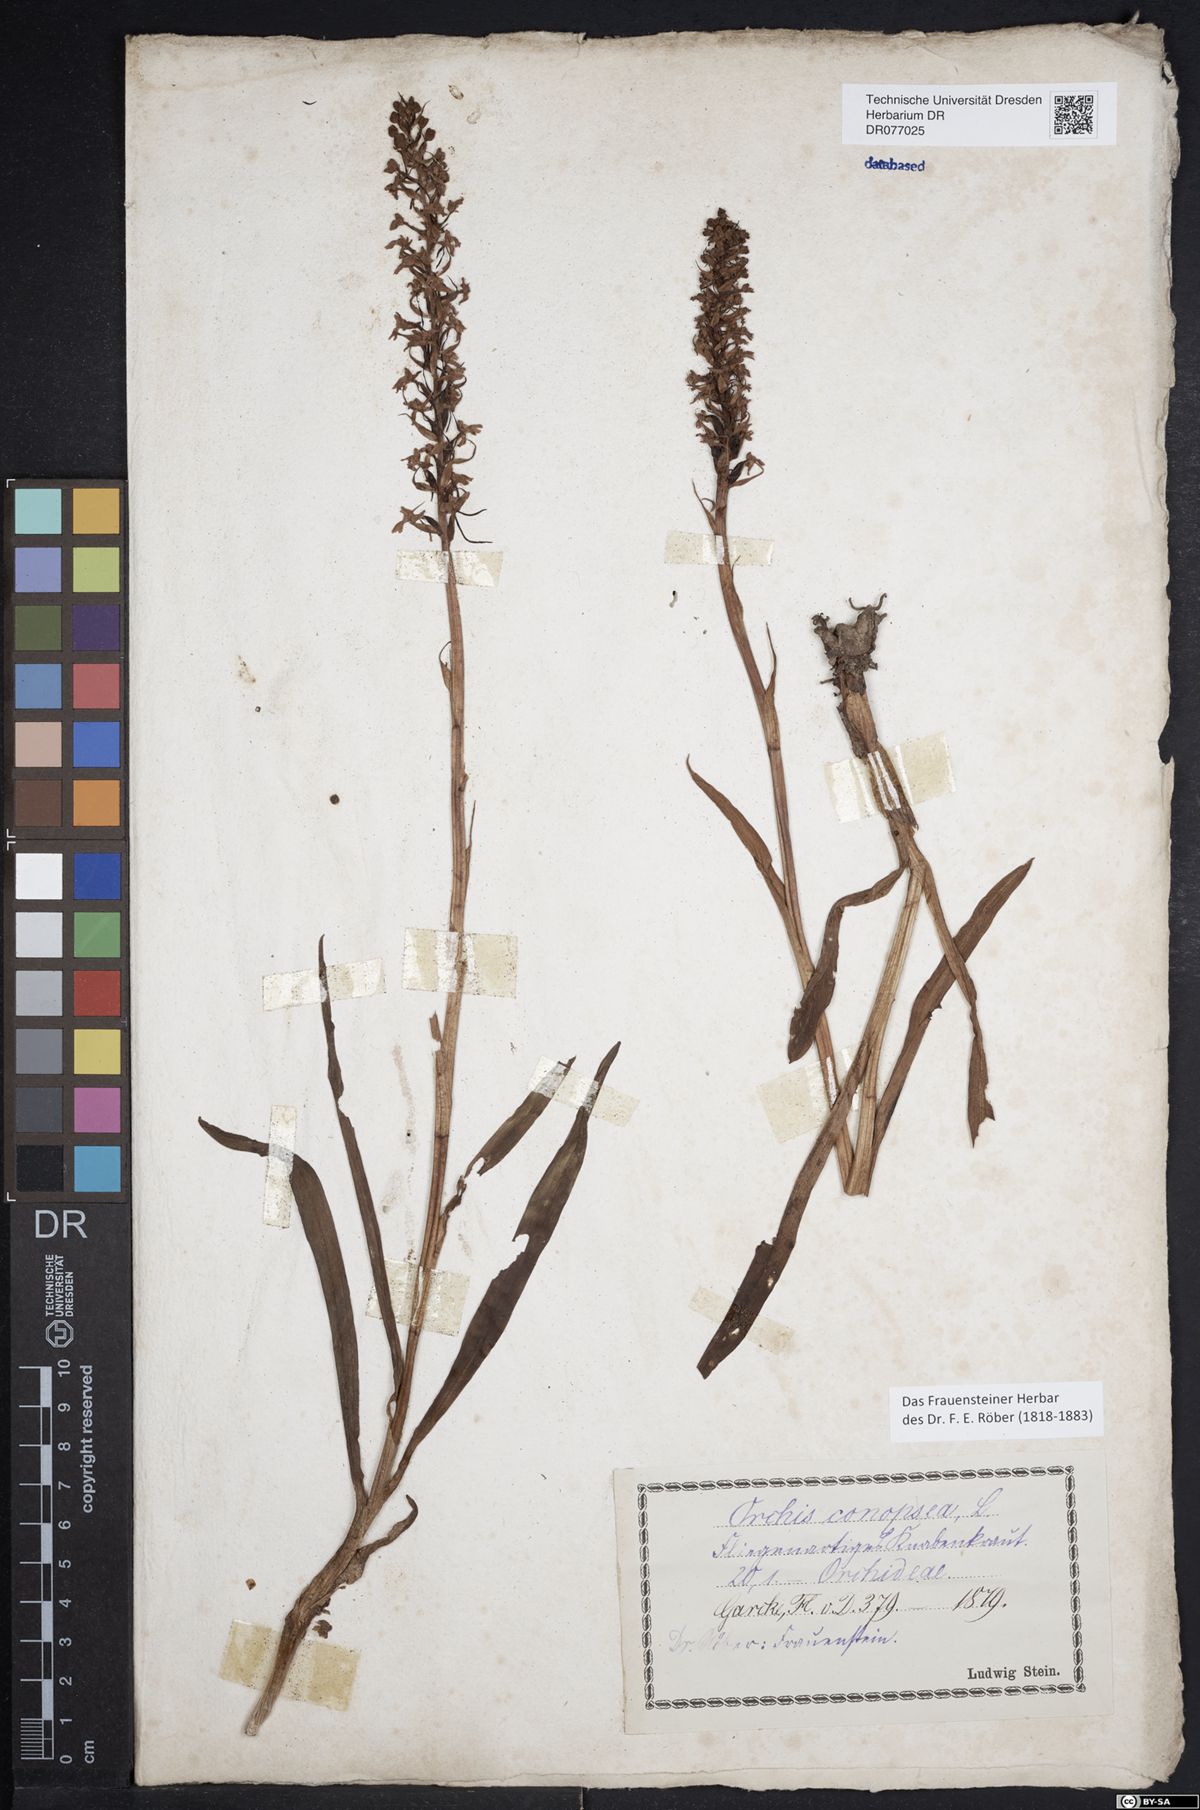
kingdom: Plantae
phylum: Tracheophyta
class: Liliopsida
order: Asparagales
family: Orchidaceae
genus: Gymnadenia
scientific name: Gymnadenia conopsea
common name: Fragrant orchid
